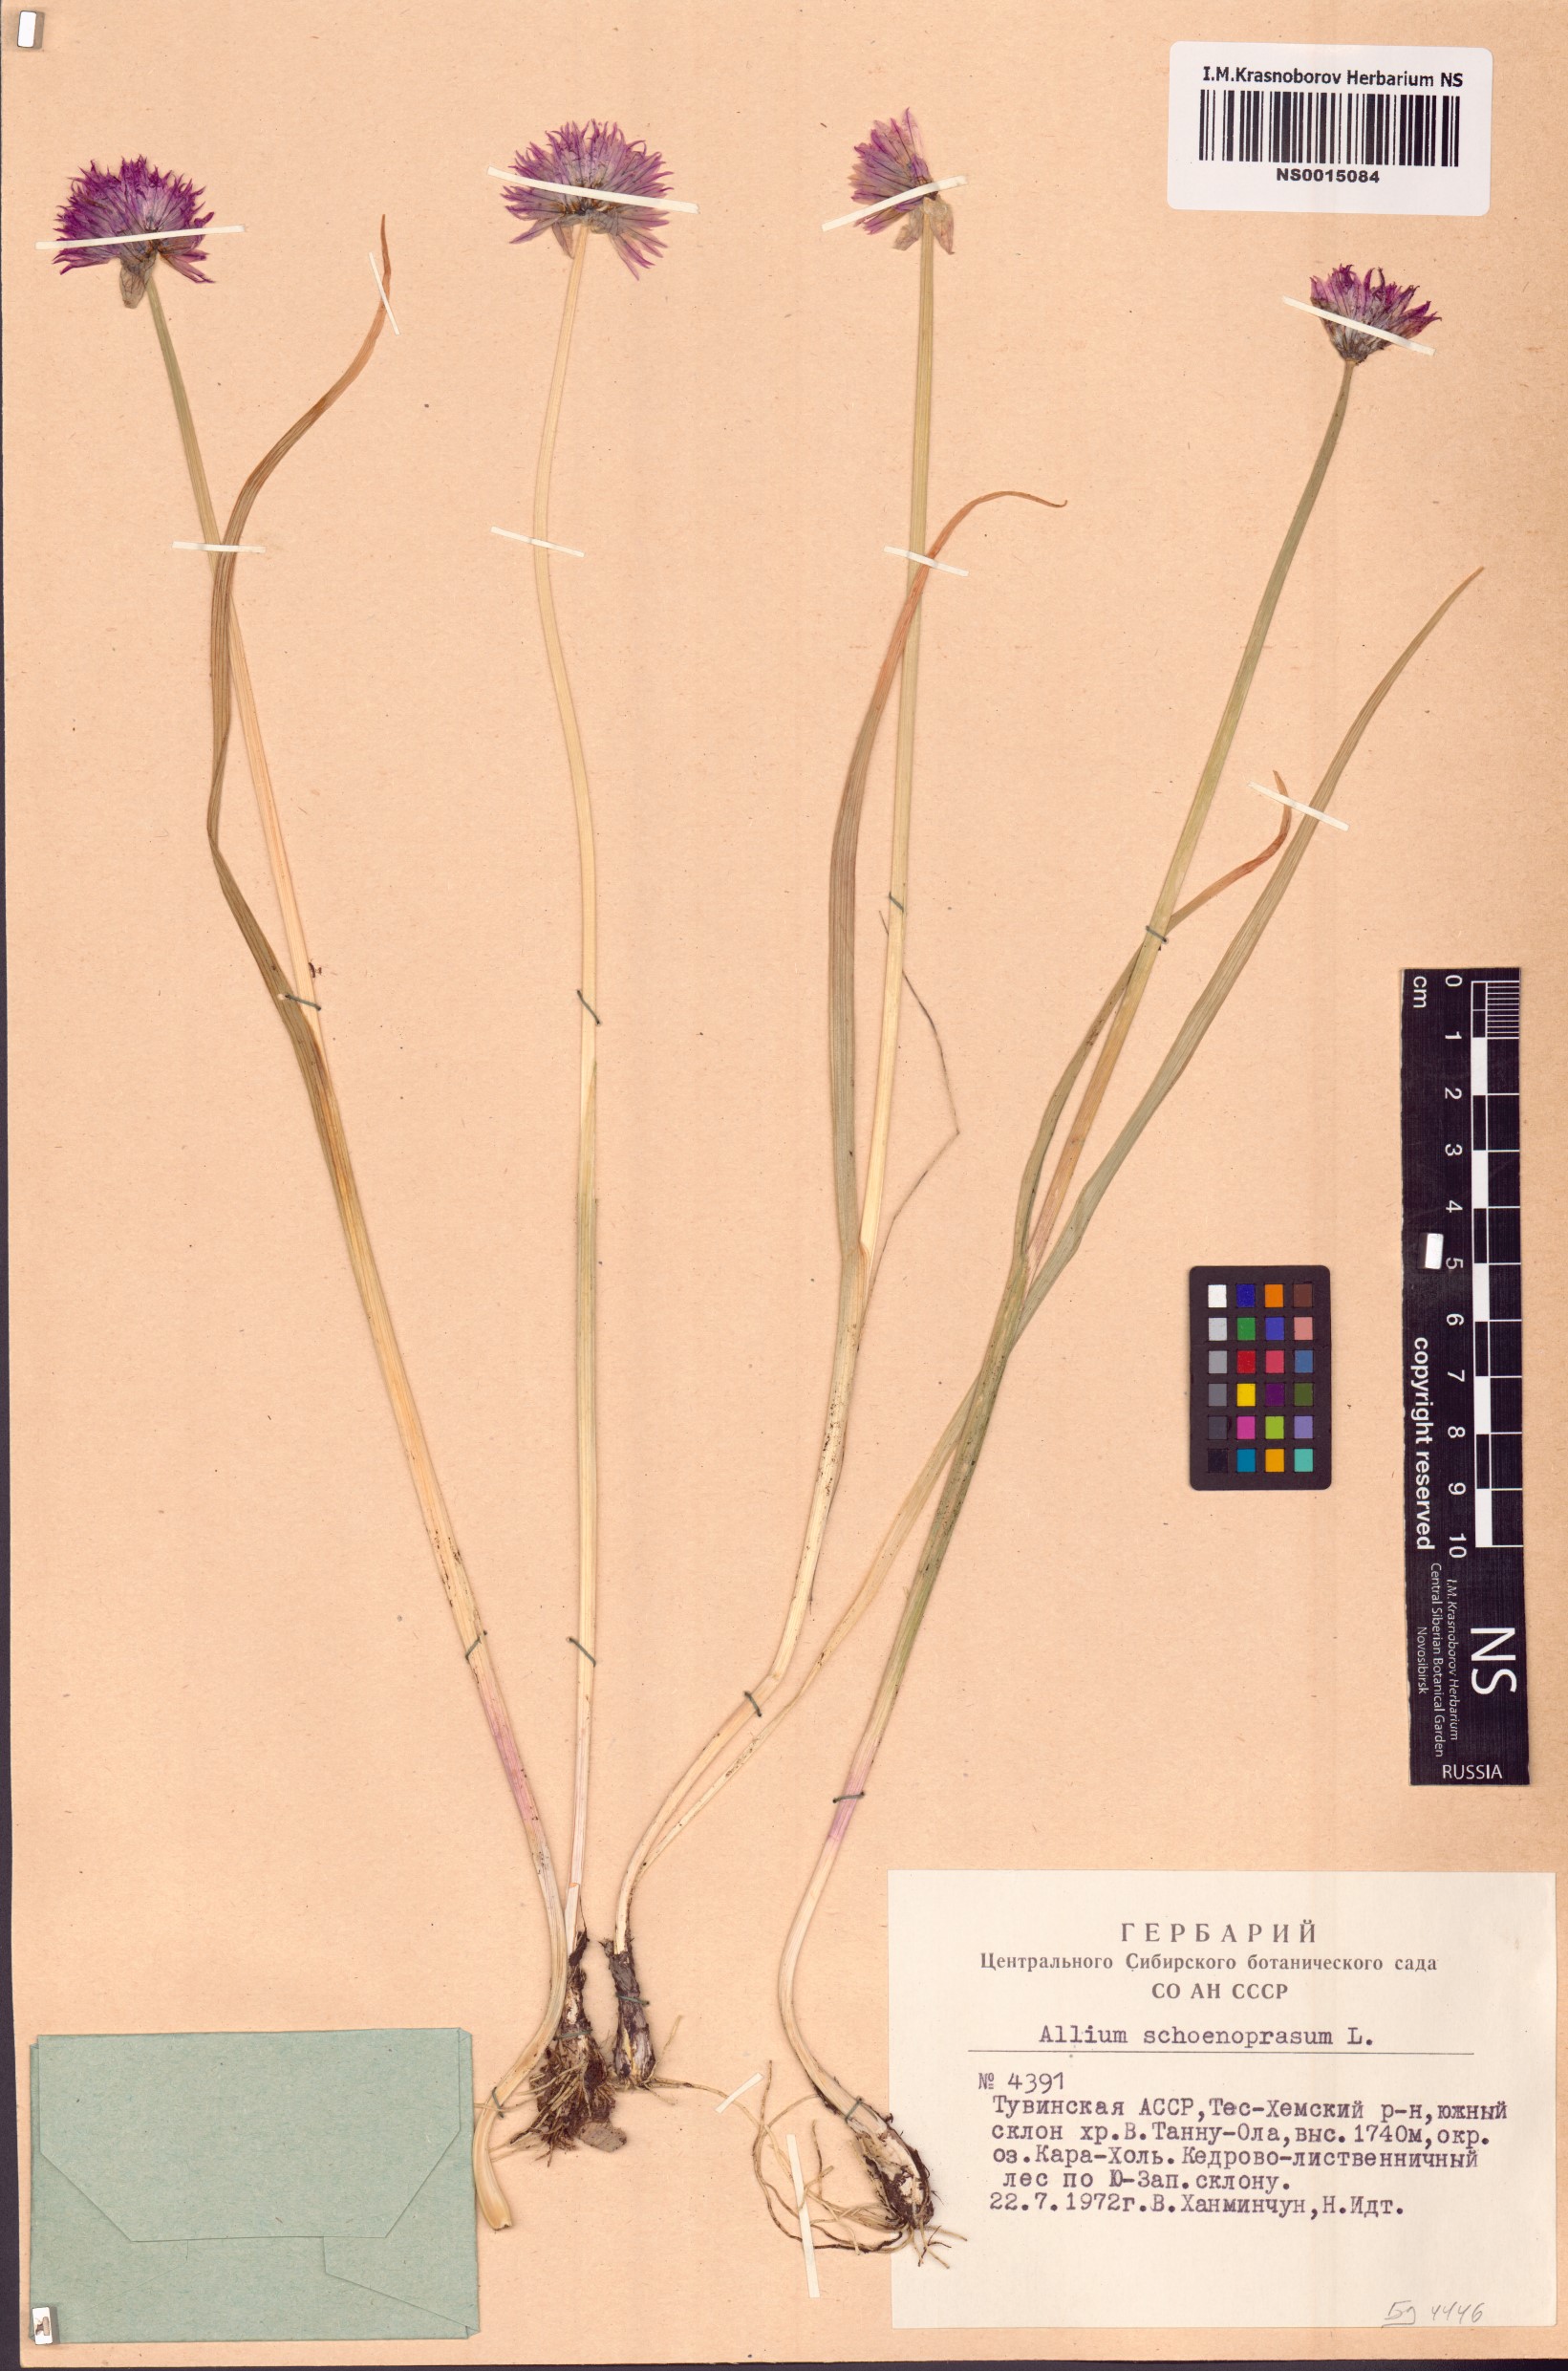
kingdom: Plantae
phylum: Tracheophyta
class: Liliopsida
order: Asparagales
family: Amaryllidaceae
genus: Allium
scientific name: Allium schoenoprasum
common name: Chives
